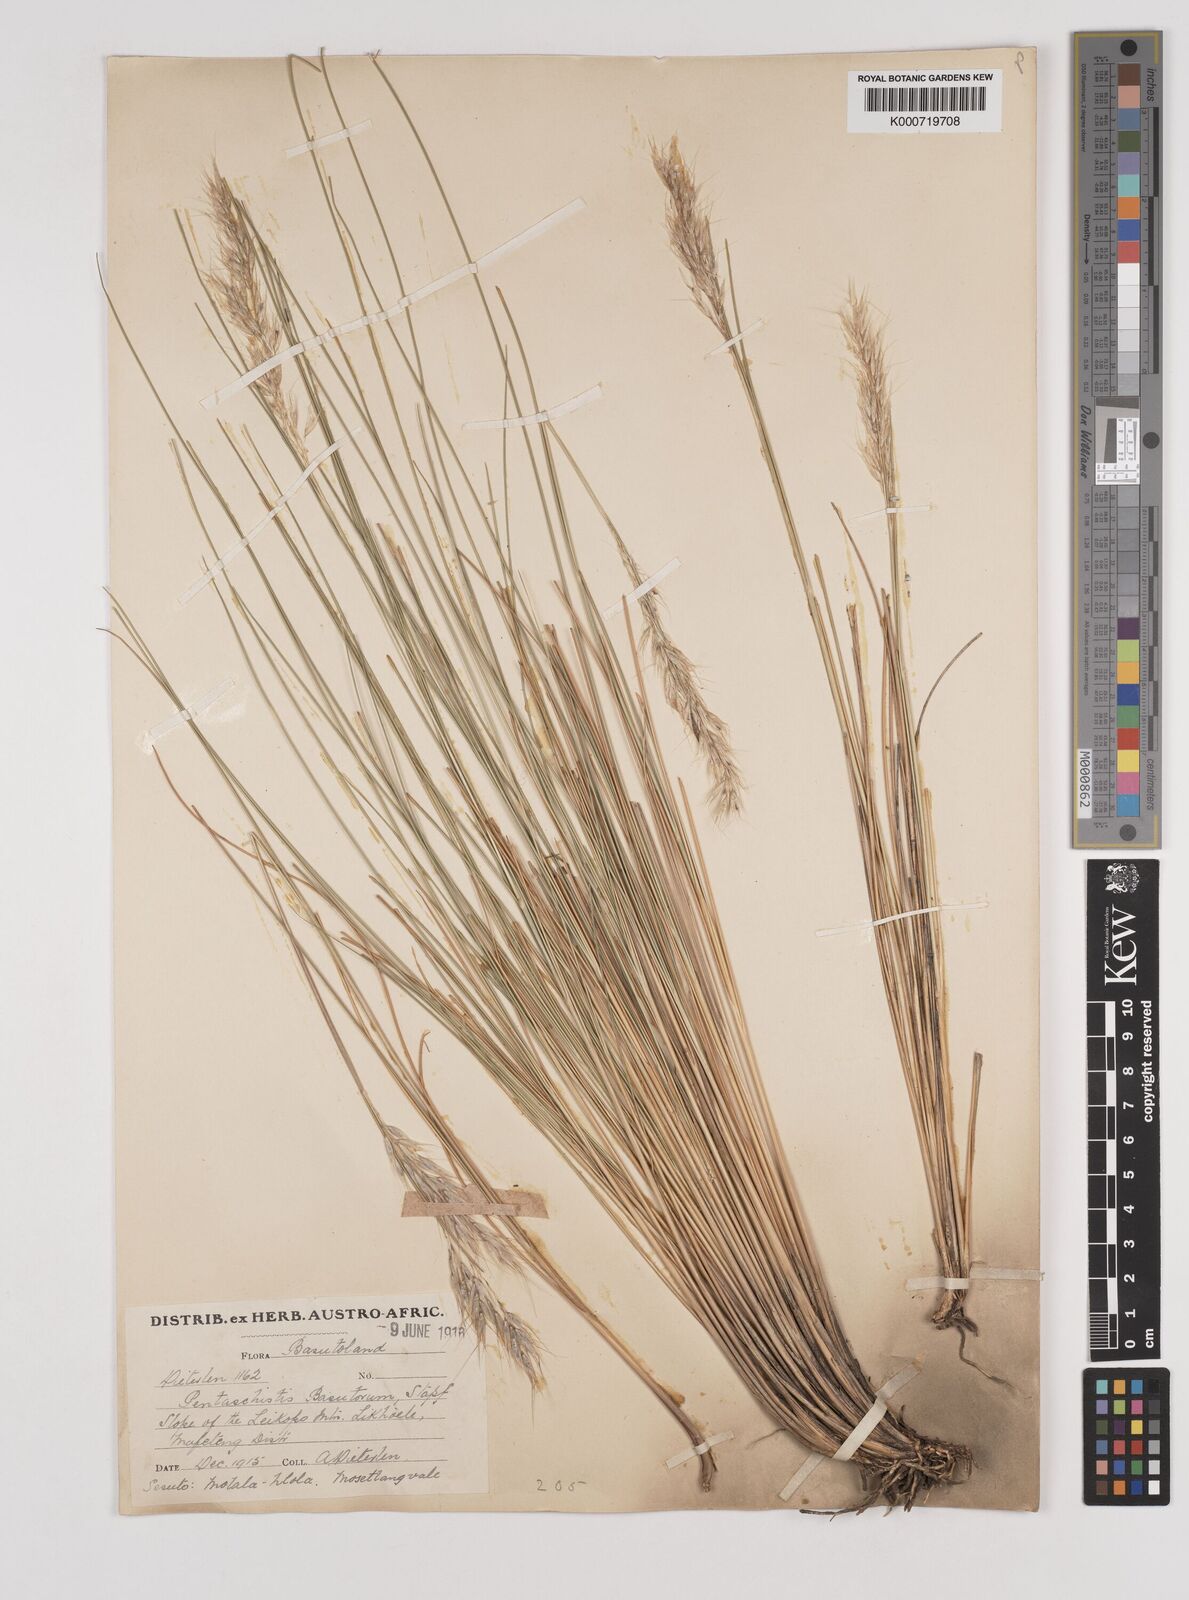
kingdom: Plantae
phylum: Tracheophyta
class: Liliopsida
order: Poales
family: Poaceae
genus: Pentameris
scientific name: Pentameris basutorum
